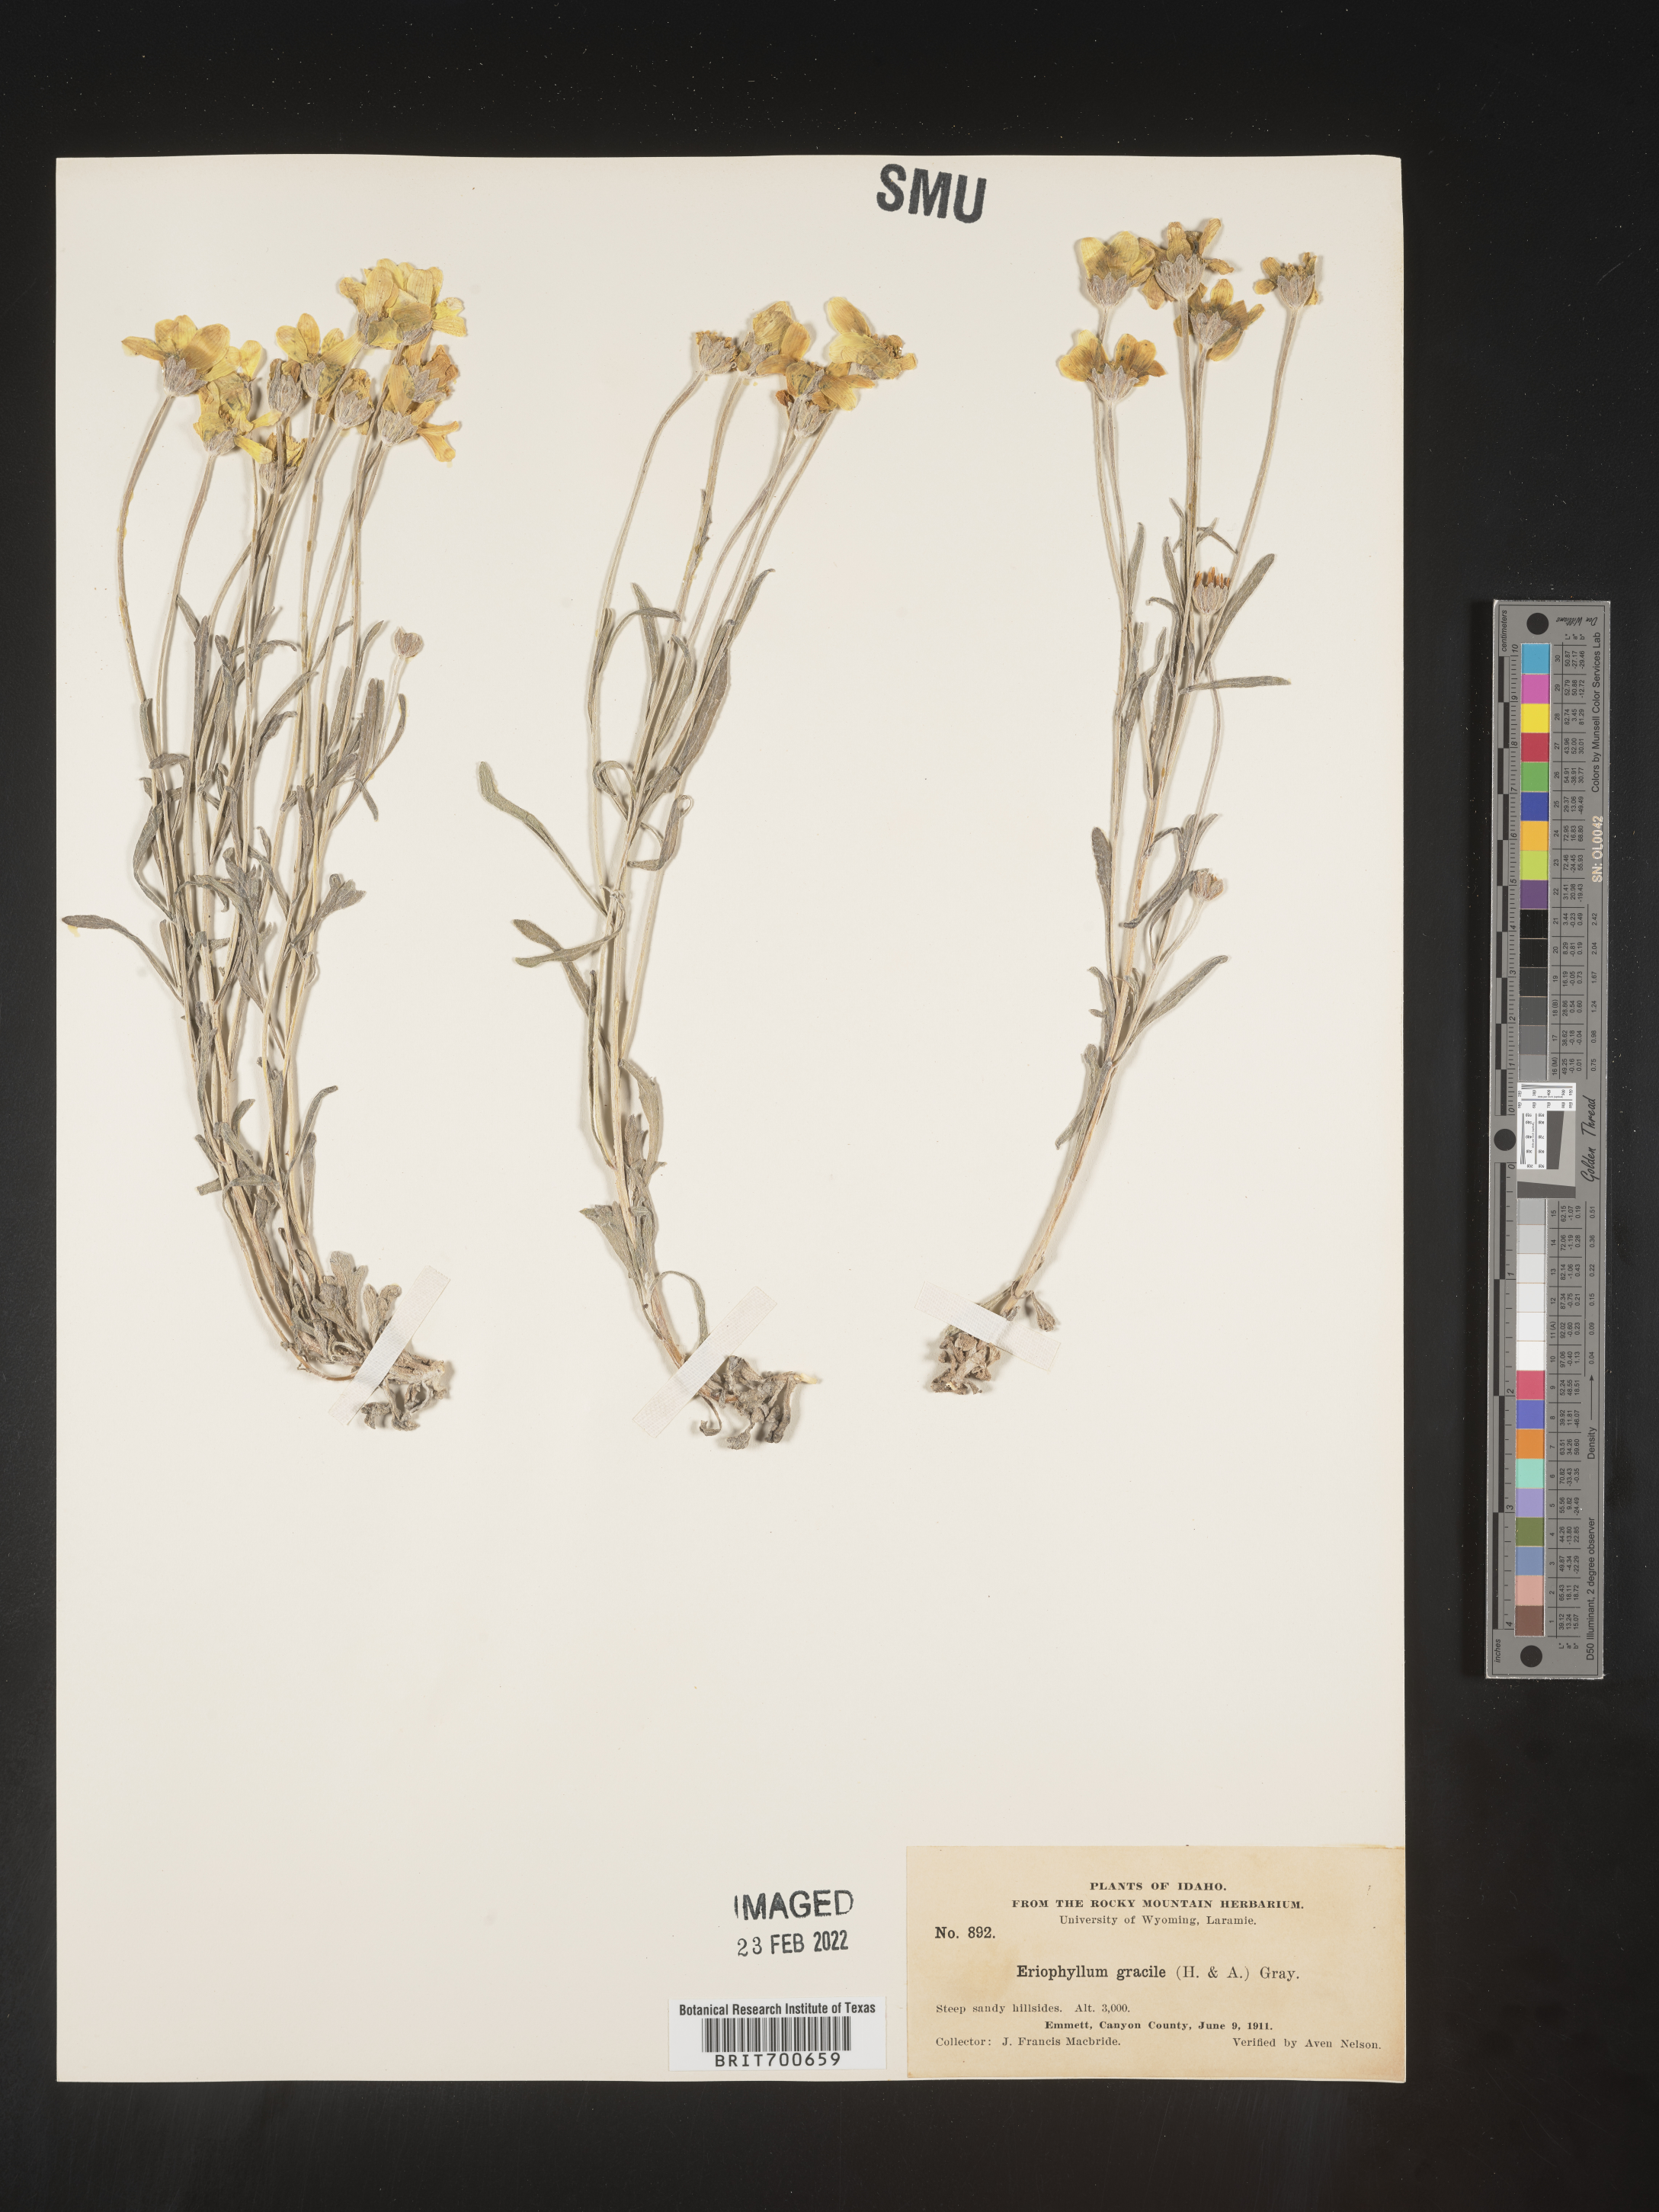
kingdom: Plantae
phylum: Tracheophyta
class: Magnoliopsida
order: Asterales
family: Asteraceae
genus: Eriophyllum
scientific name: Eriophyllum lanatum
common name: Common woolly-sunflower
